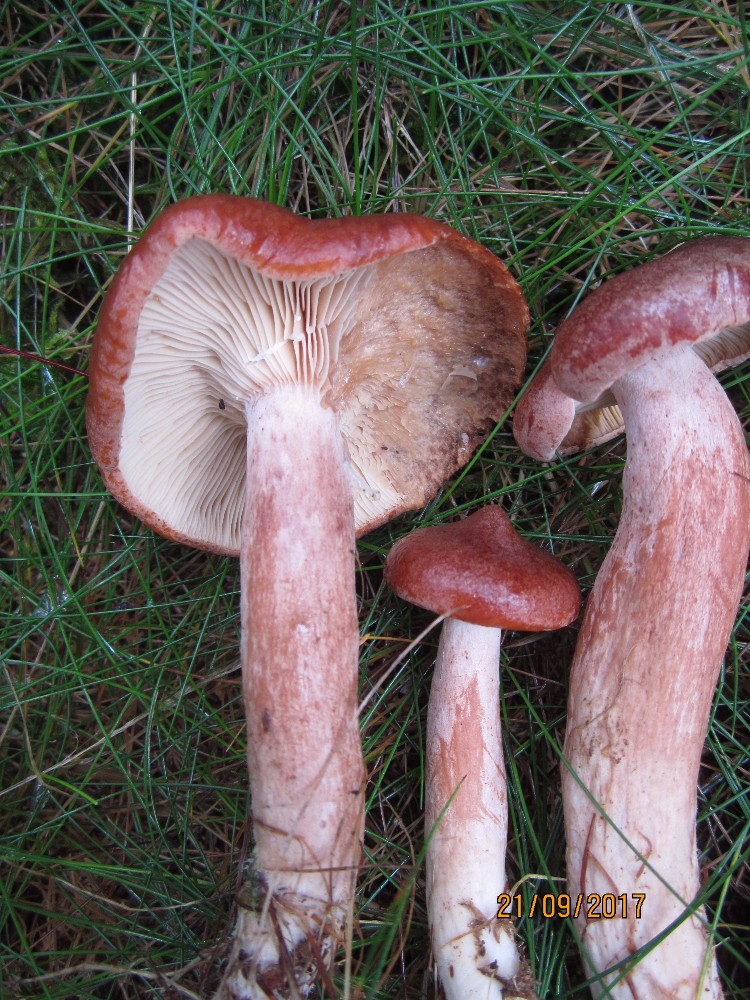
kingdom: Fungi
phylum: Basidiomycota
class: Agaricomycetes
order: Russulales
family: Russulaceae
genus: Lactarius
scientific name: Lactarius rufus
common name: rødbrun mælkehat
